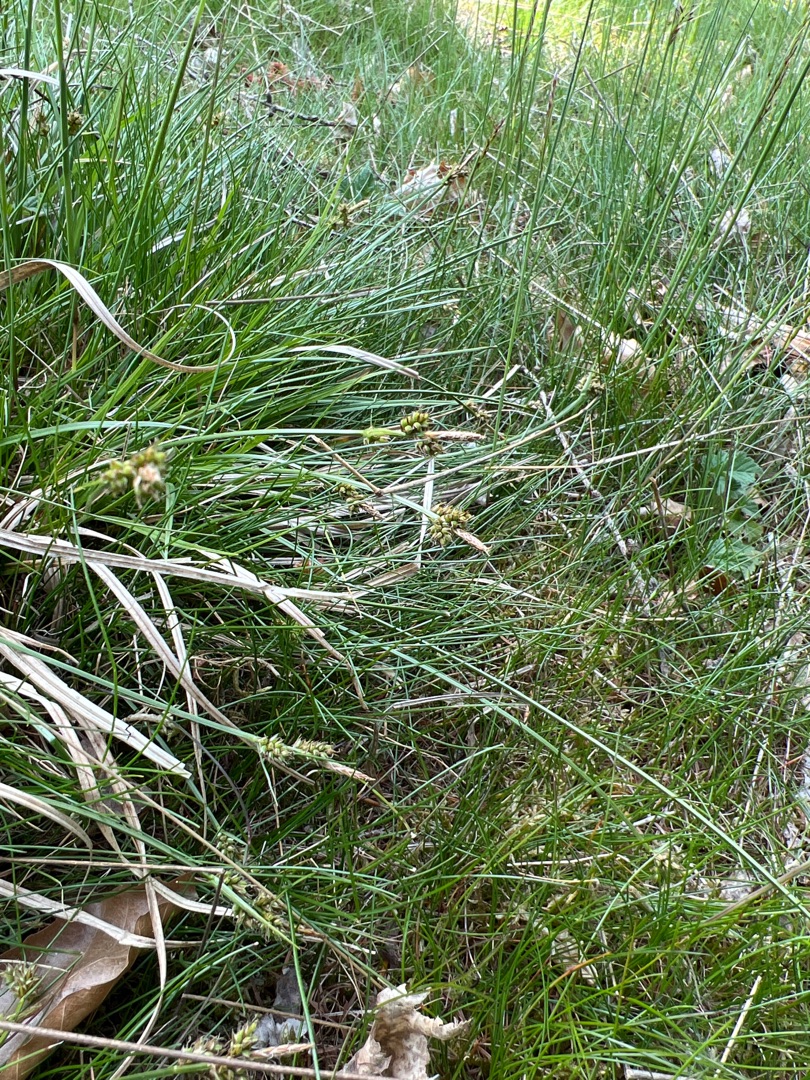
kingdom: Plantae
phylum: Tracheophyta
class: Liliopsida
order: Poales
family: Cyperaceae
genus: Carex
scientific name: Carex pilulifera
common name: Pille-star
